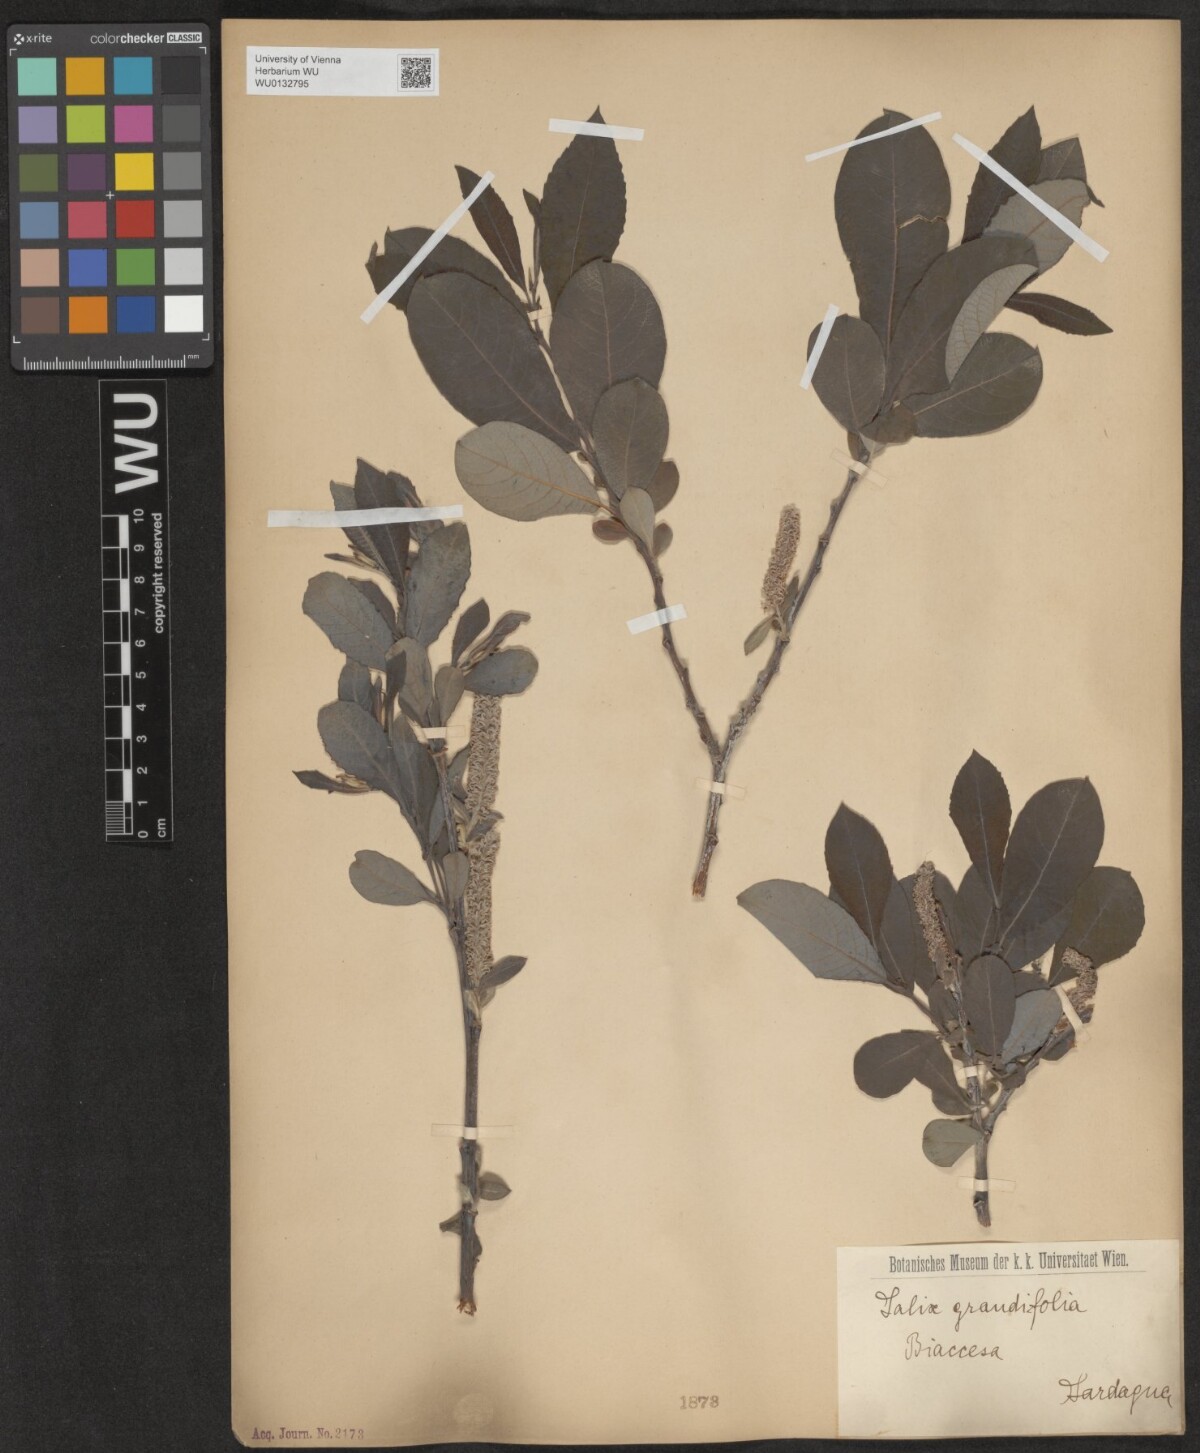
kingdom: Plantae
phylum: Tracheophyta
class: Magnoliopsida
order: Malpighiales
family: Salicaceae
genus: Salix
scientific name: Salix appendiculata
